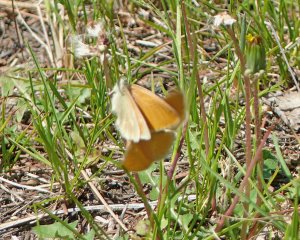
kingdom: Animalia
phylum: Arthropoda
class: Insecta
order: Lepidoptera
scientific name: Lepidoptera
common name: Butterflies
